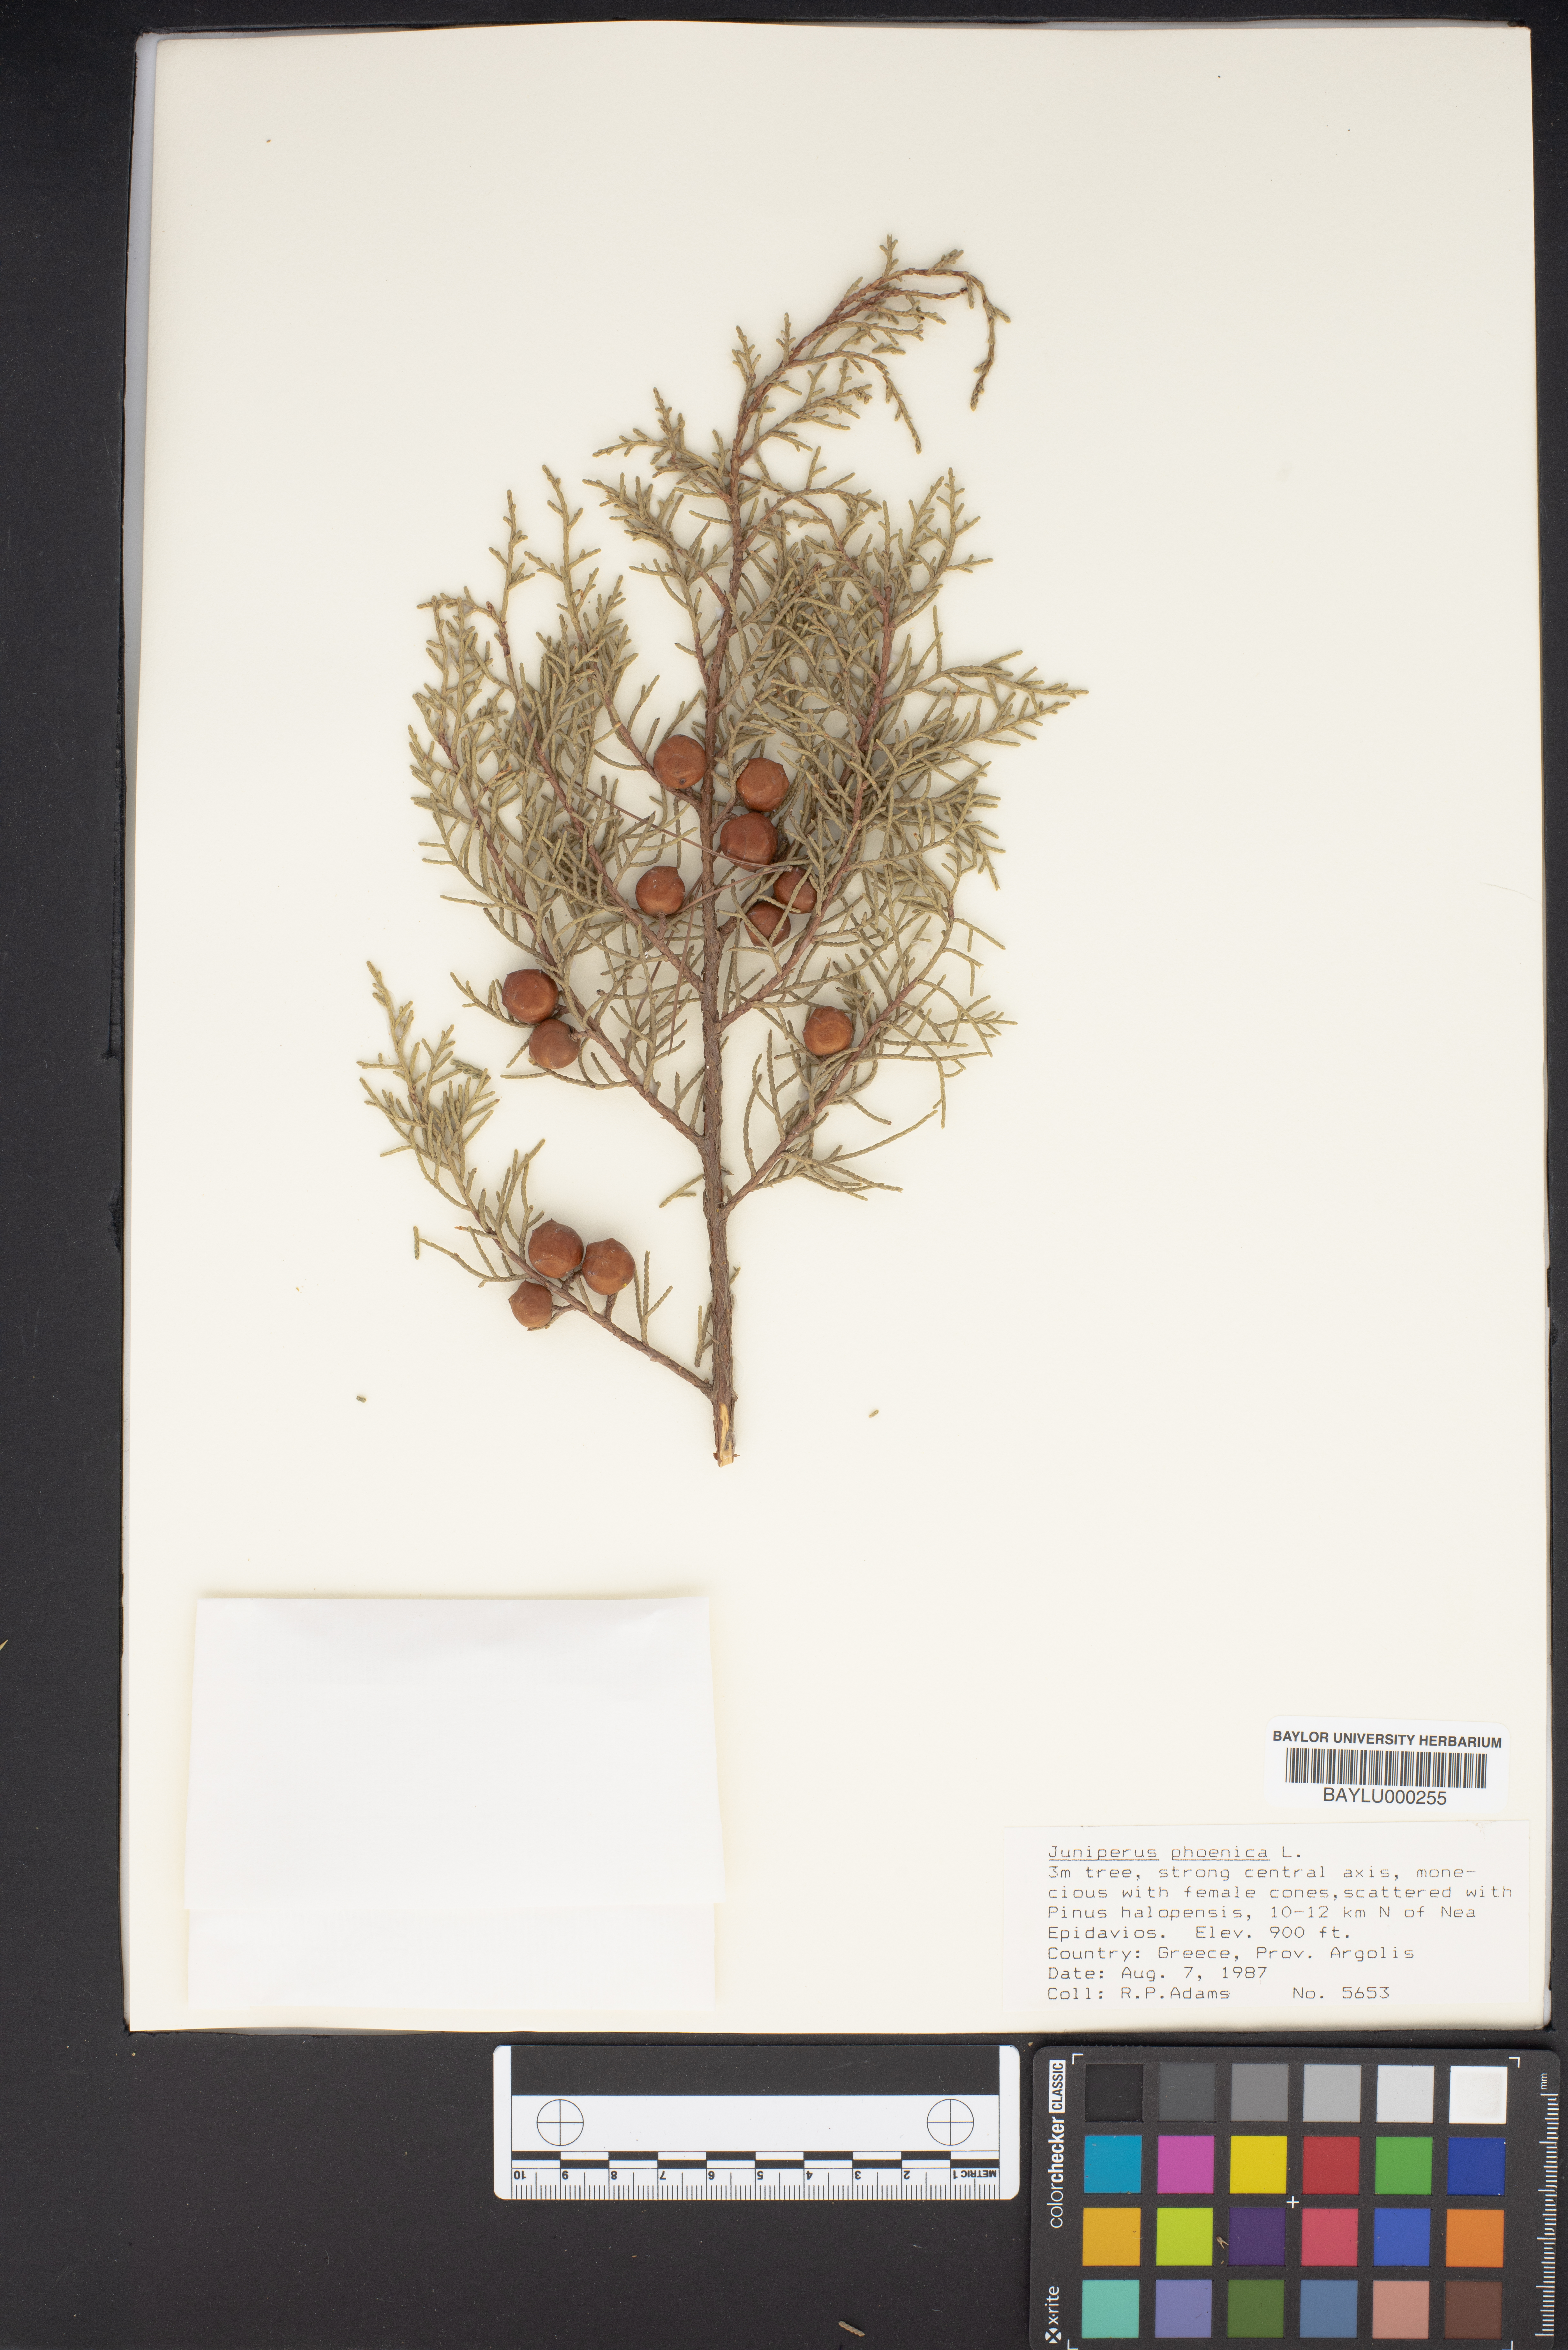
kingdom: Plantae
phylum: Tracheophyta
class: Pinopsida
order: Pinales
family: Cupressaceae
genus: Juniperus
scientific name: Juniperus phoenicea
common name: Phoenician juniper
